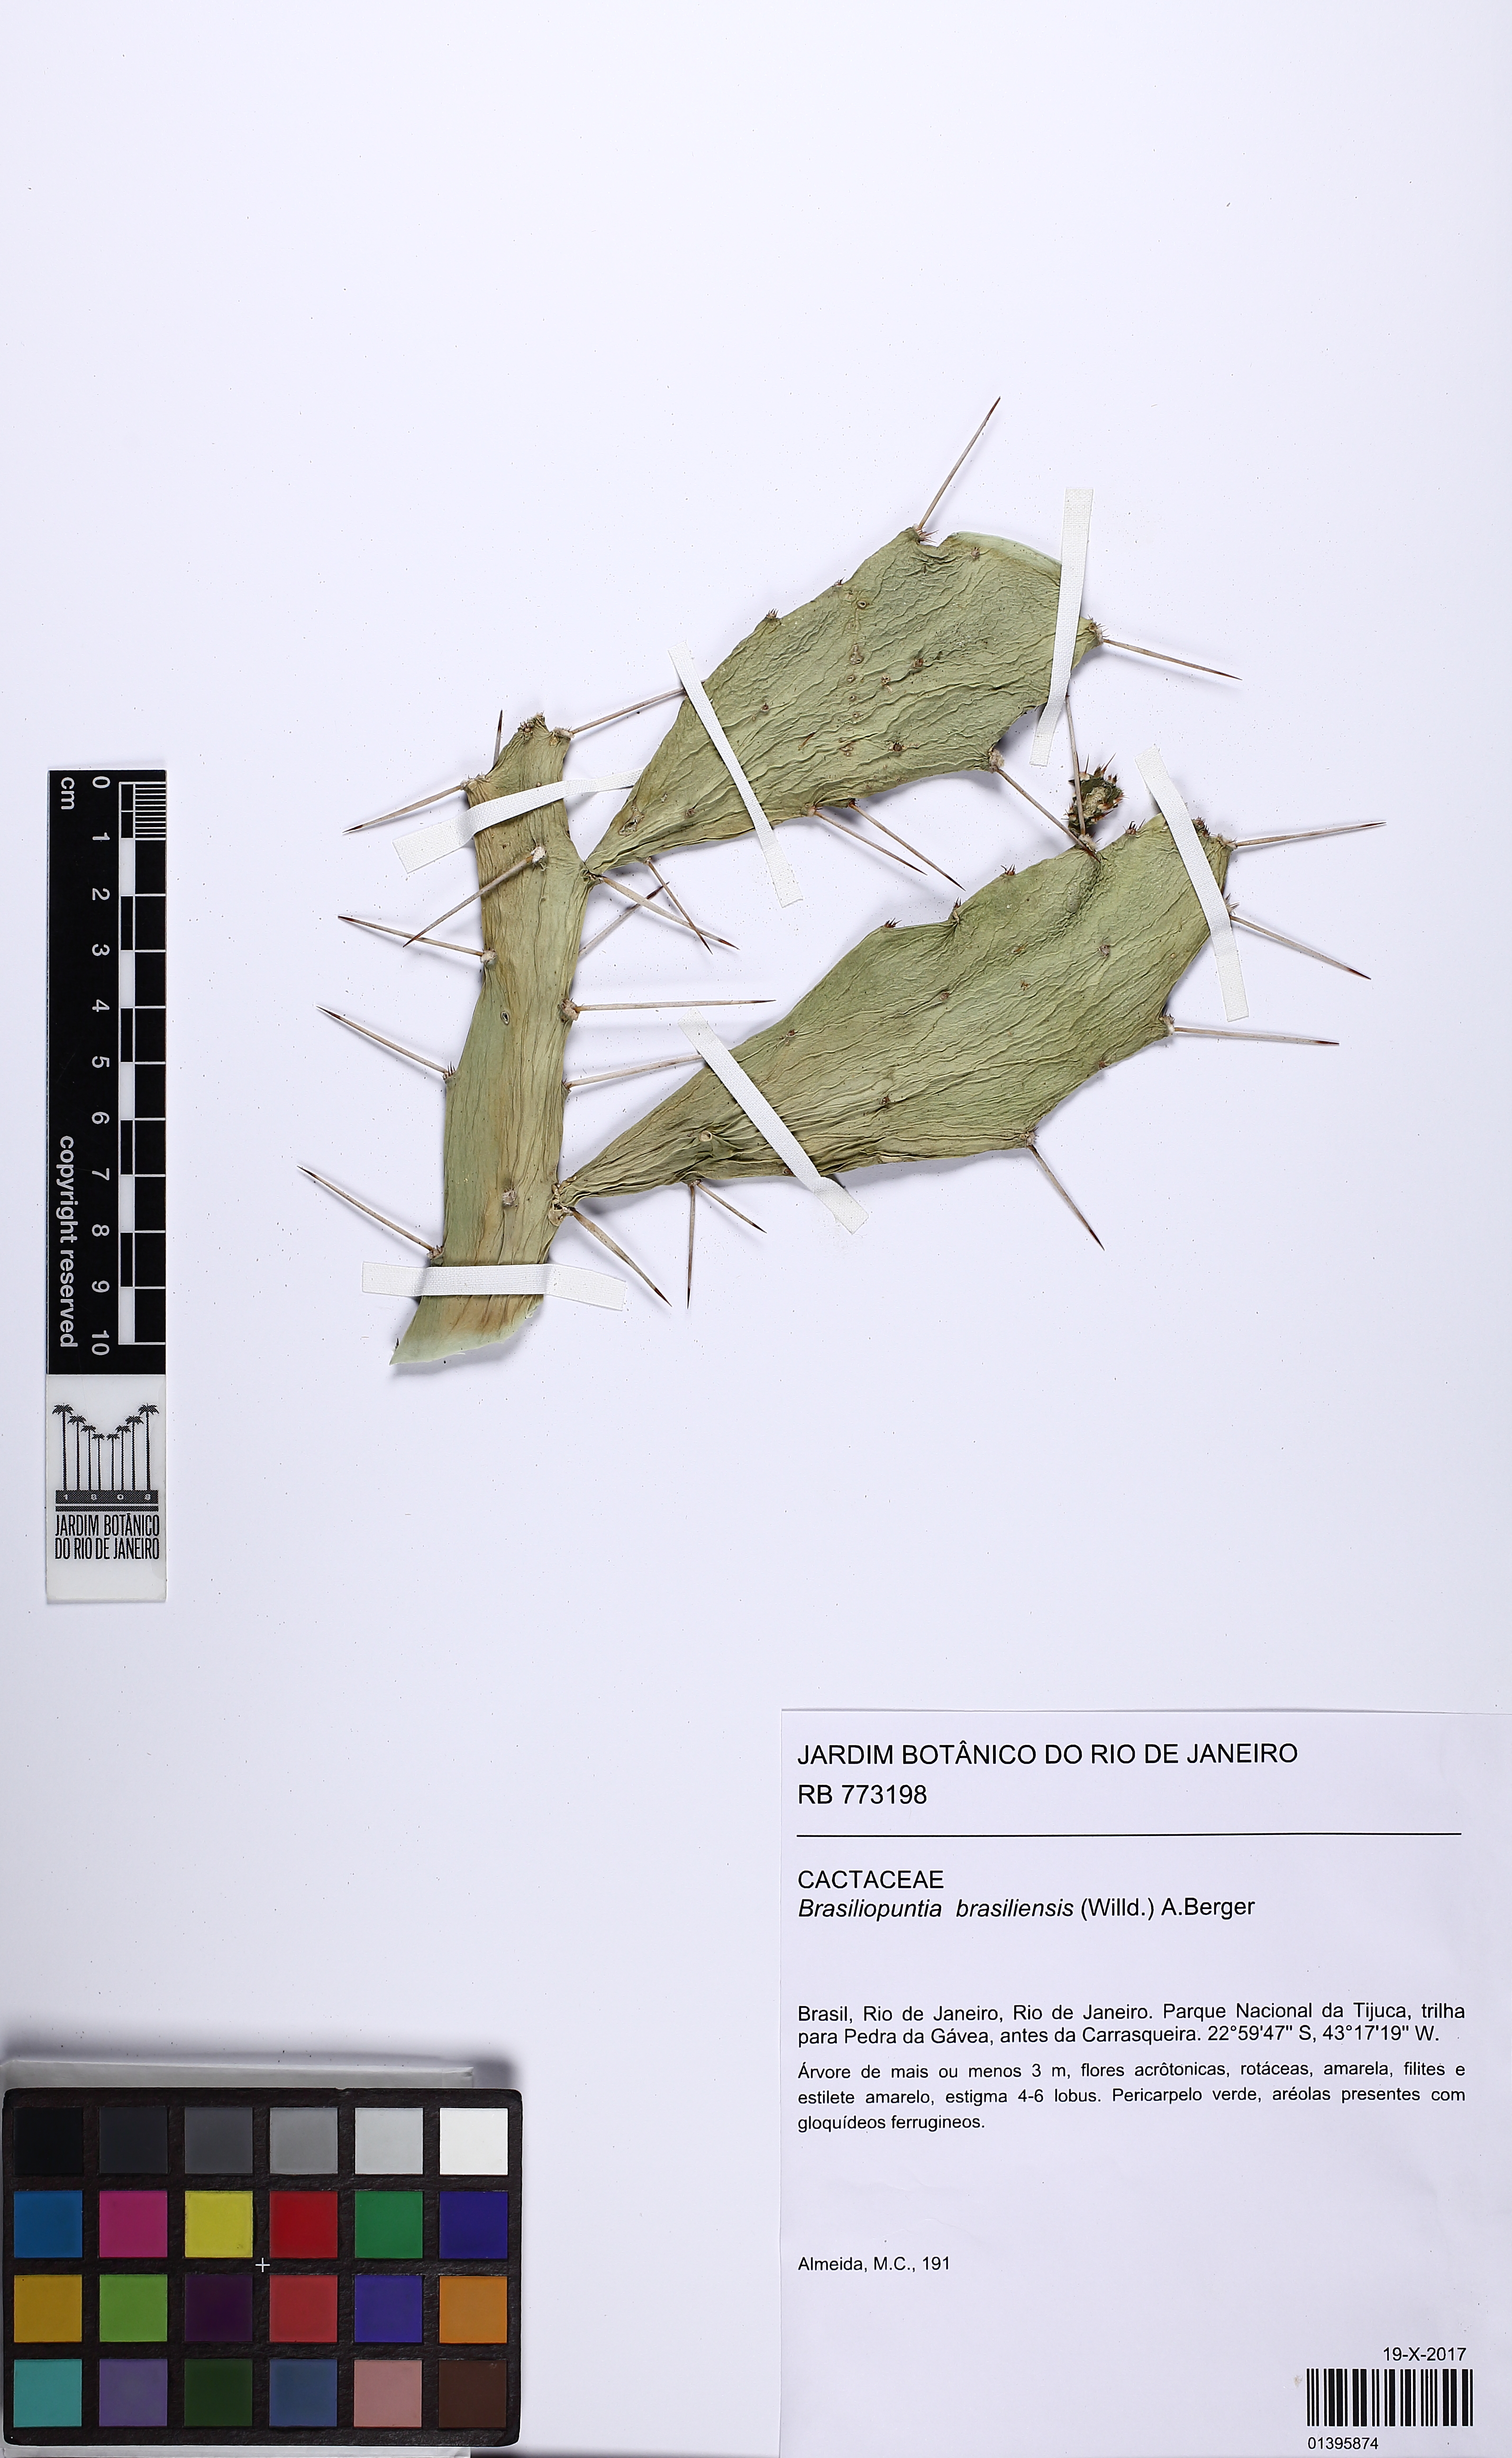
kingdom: Plantae
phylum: Tracheophyta
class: Magnoliopsida
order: Caryophyllales
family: Cactaceae
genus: Brasiliopuntia
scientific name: Brasiliopuntia brasiliensis
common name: Brazilian pricklypear
